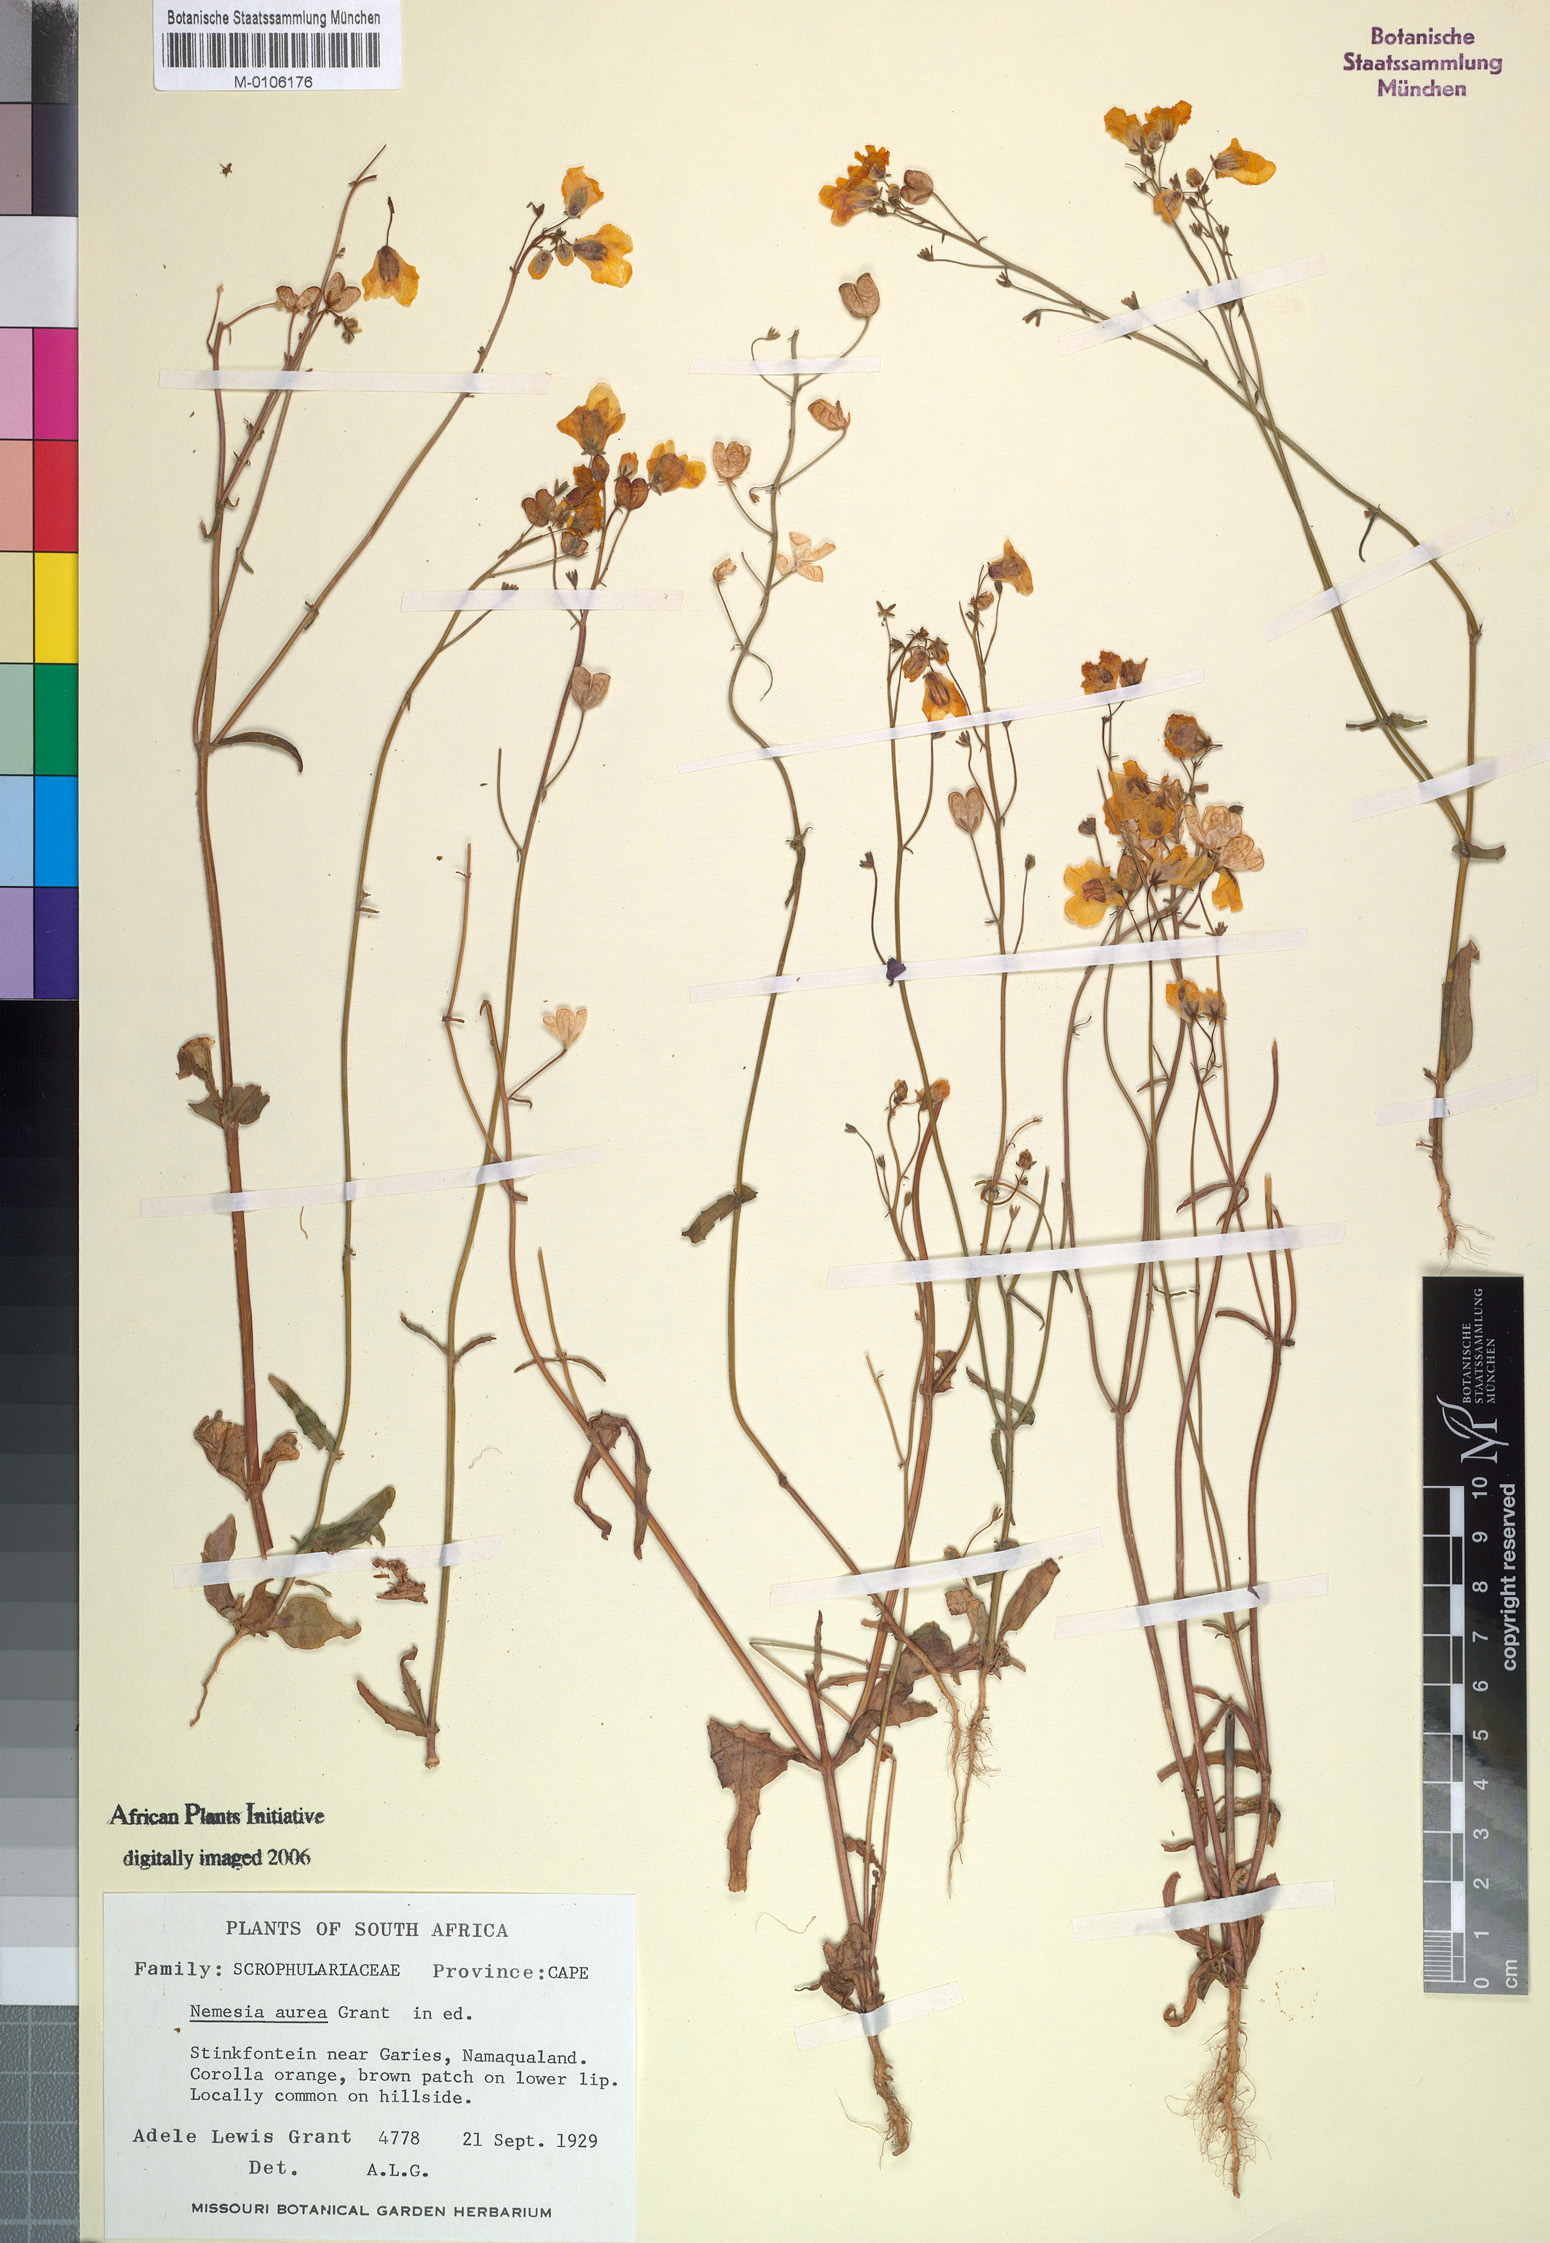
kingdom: Plantae
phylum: Tracheophyta
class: Magnoliopsida
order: Lamiales
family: Scrophulariaceae
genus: Nemesia
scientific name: Nemesia
